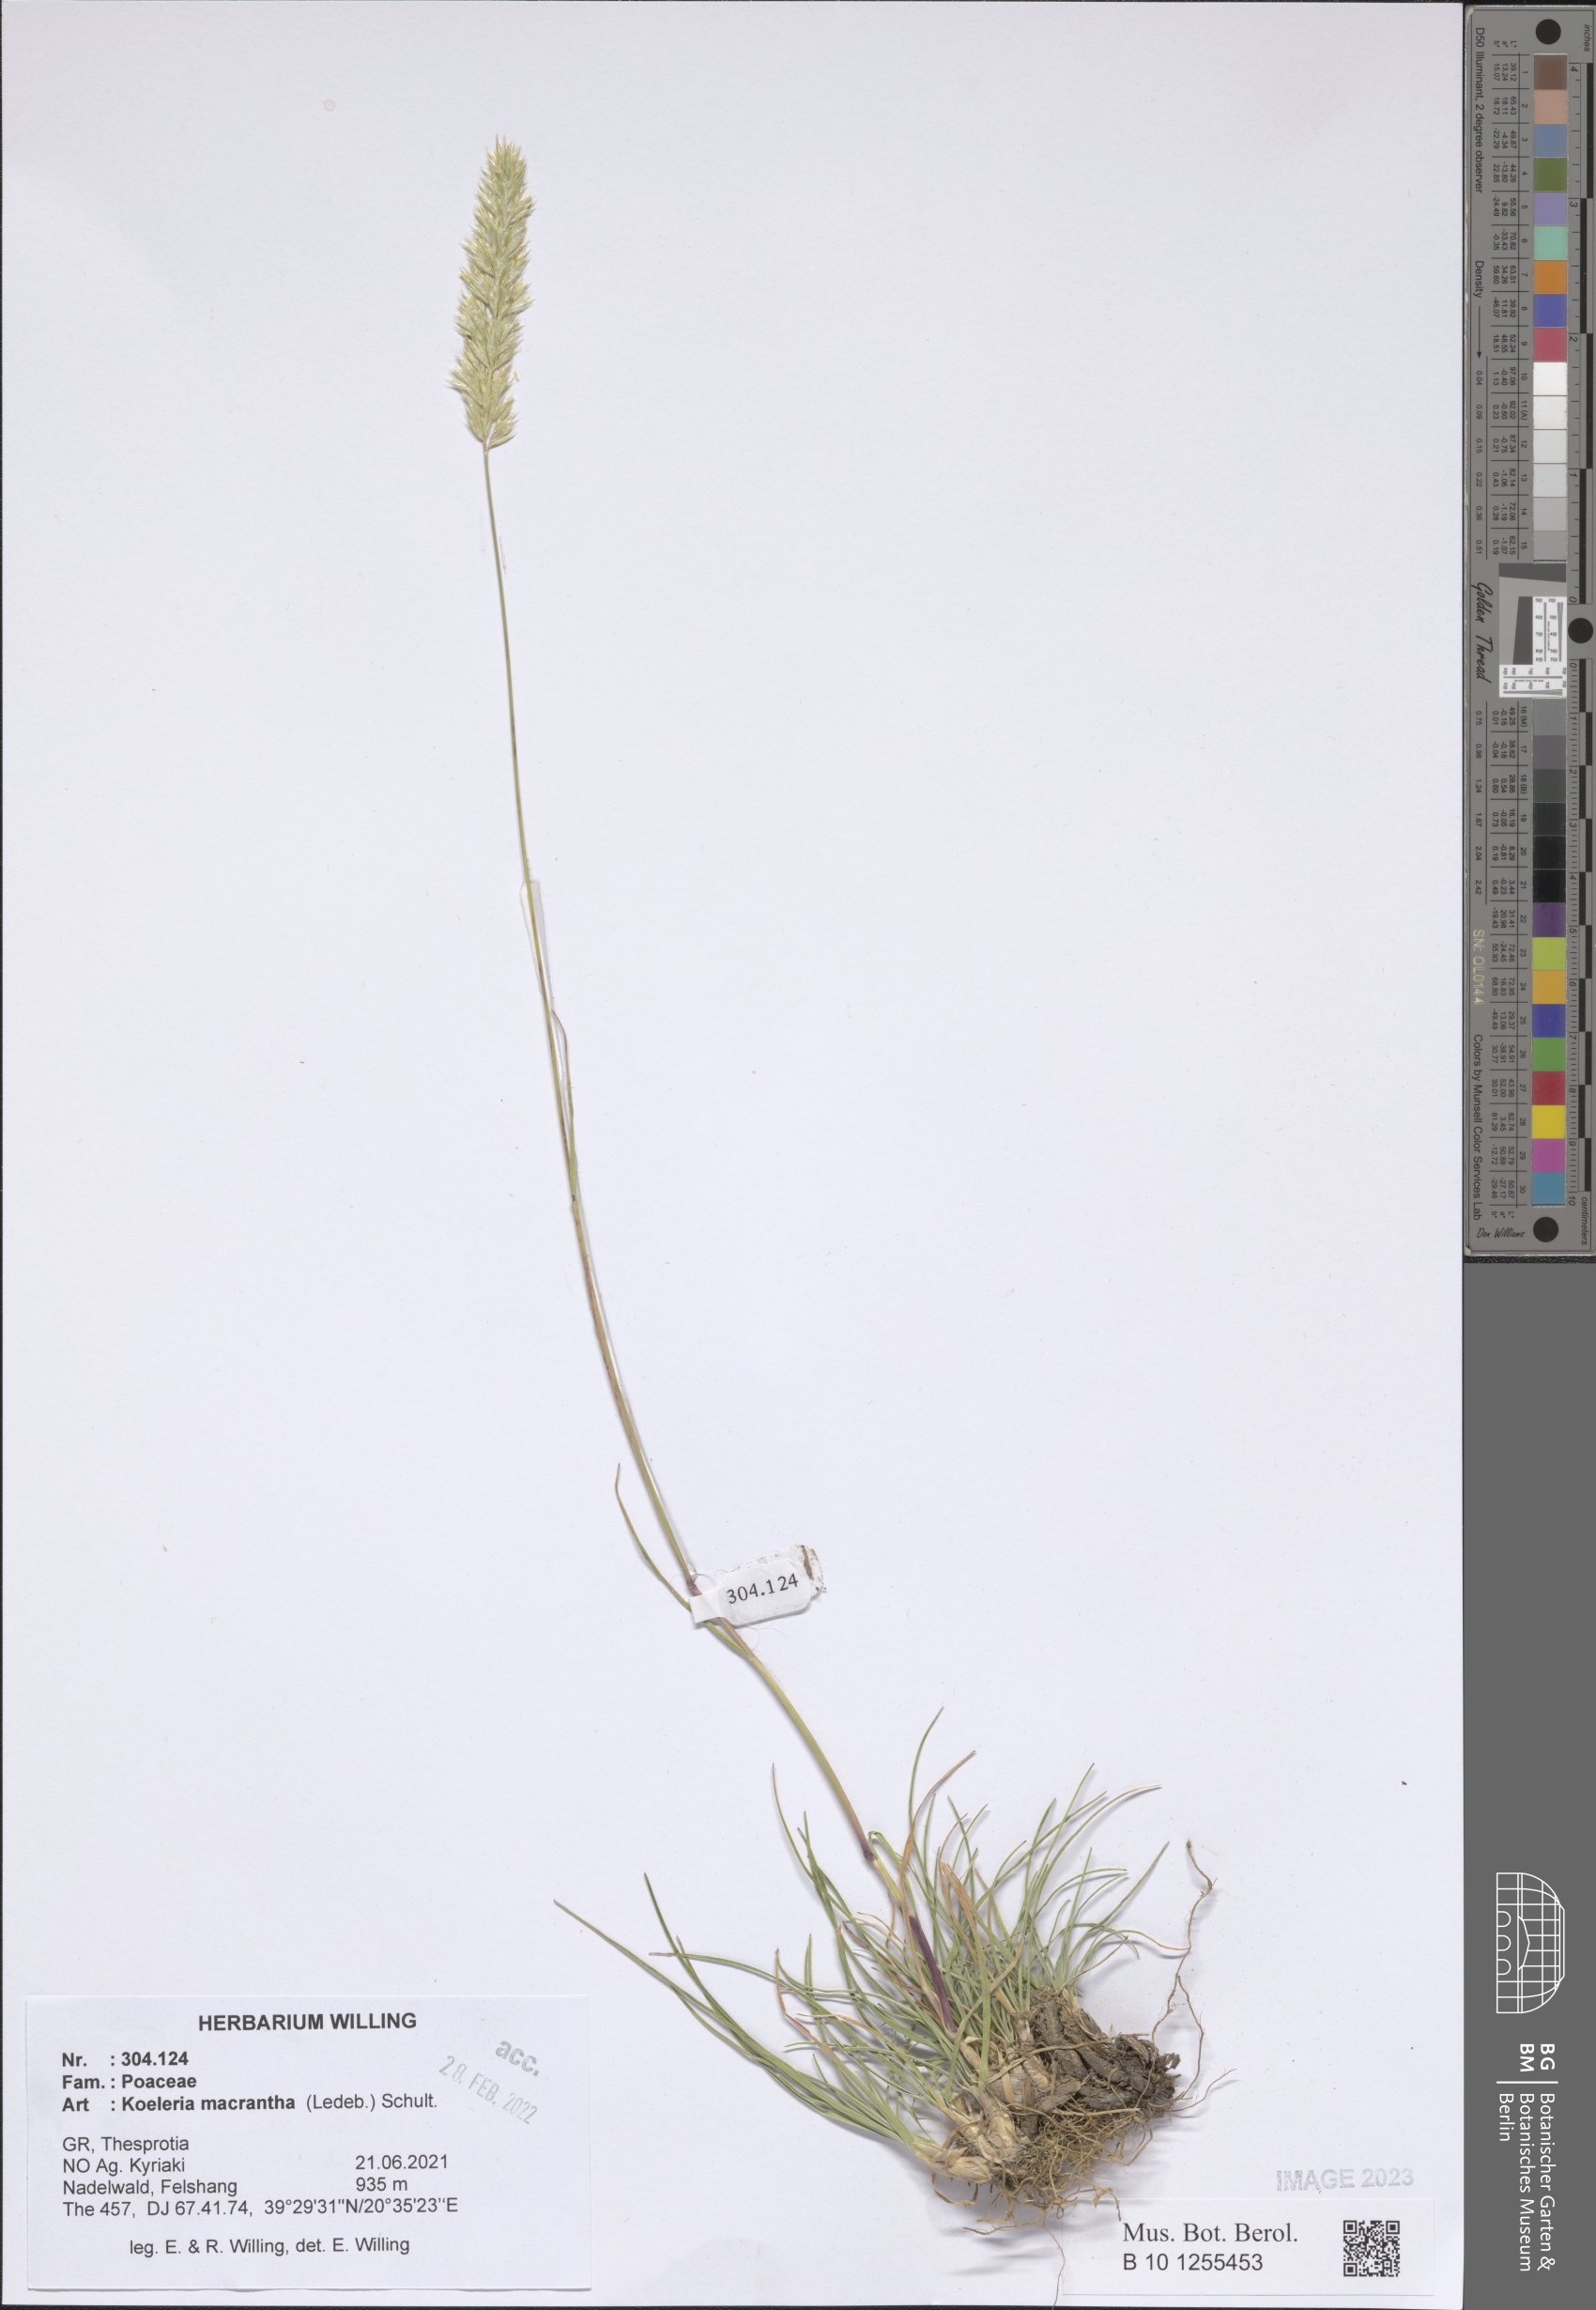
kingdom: Plantae
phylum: Tracheophyta
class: Liliopsida
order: Poales
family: Poaceae
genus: Koeleria
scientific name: Koeleria macrantha
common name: Crested hair-grass
